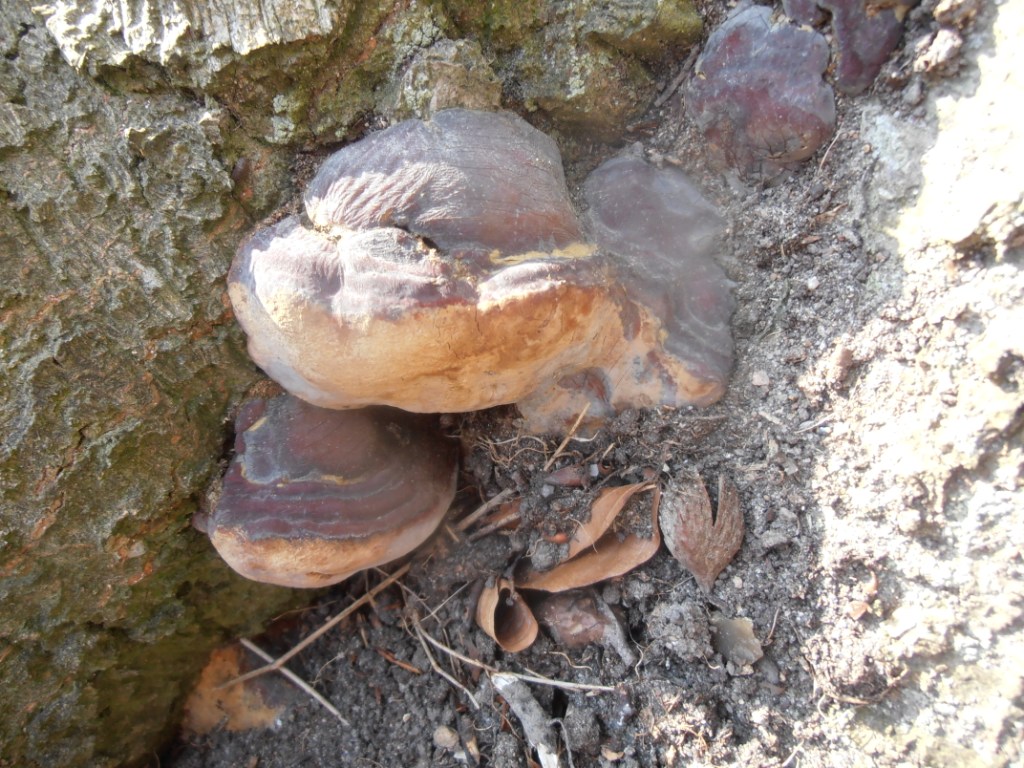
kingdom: Fungi
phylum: Basidiomycota
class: Agaricomycetes
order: Polyporales
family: Polyporaceae
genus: Ganoderma
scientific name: Ganoderma pfeifferi
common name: kobberrød lakporesvamp
